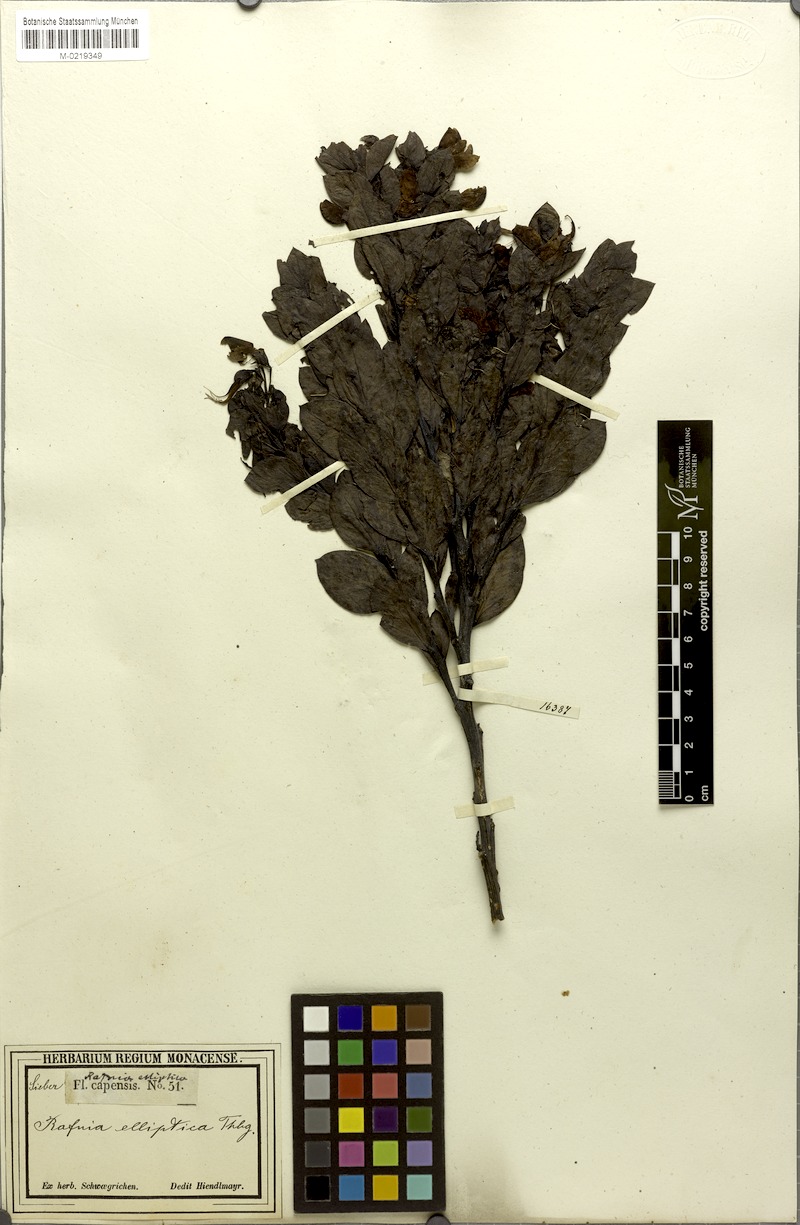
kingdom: Plantae
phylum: Tracheophyta
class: Magnoliopsida
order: Fabales
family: Fabaceae
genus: Rafnia
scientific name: Rafnia elliptica
